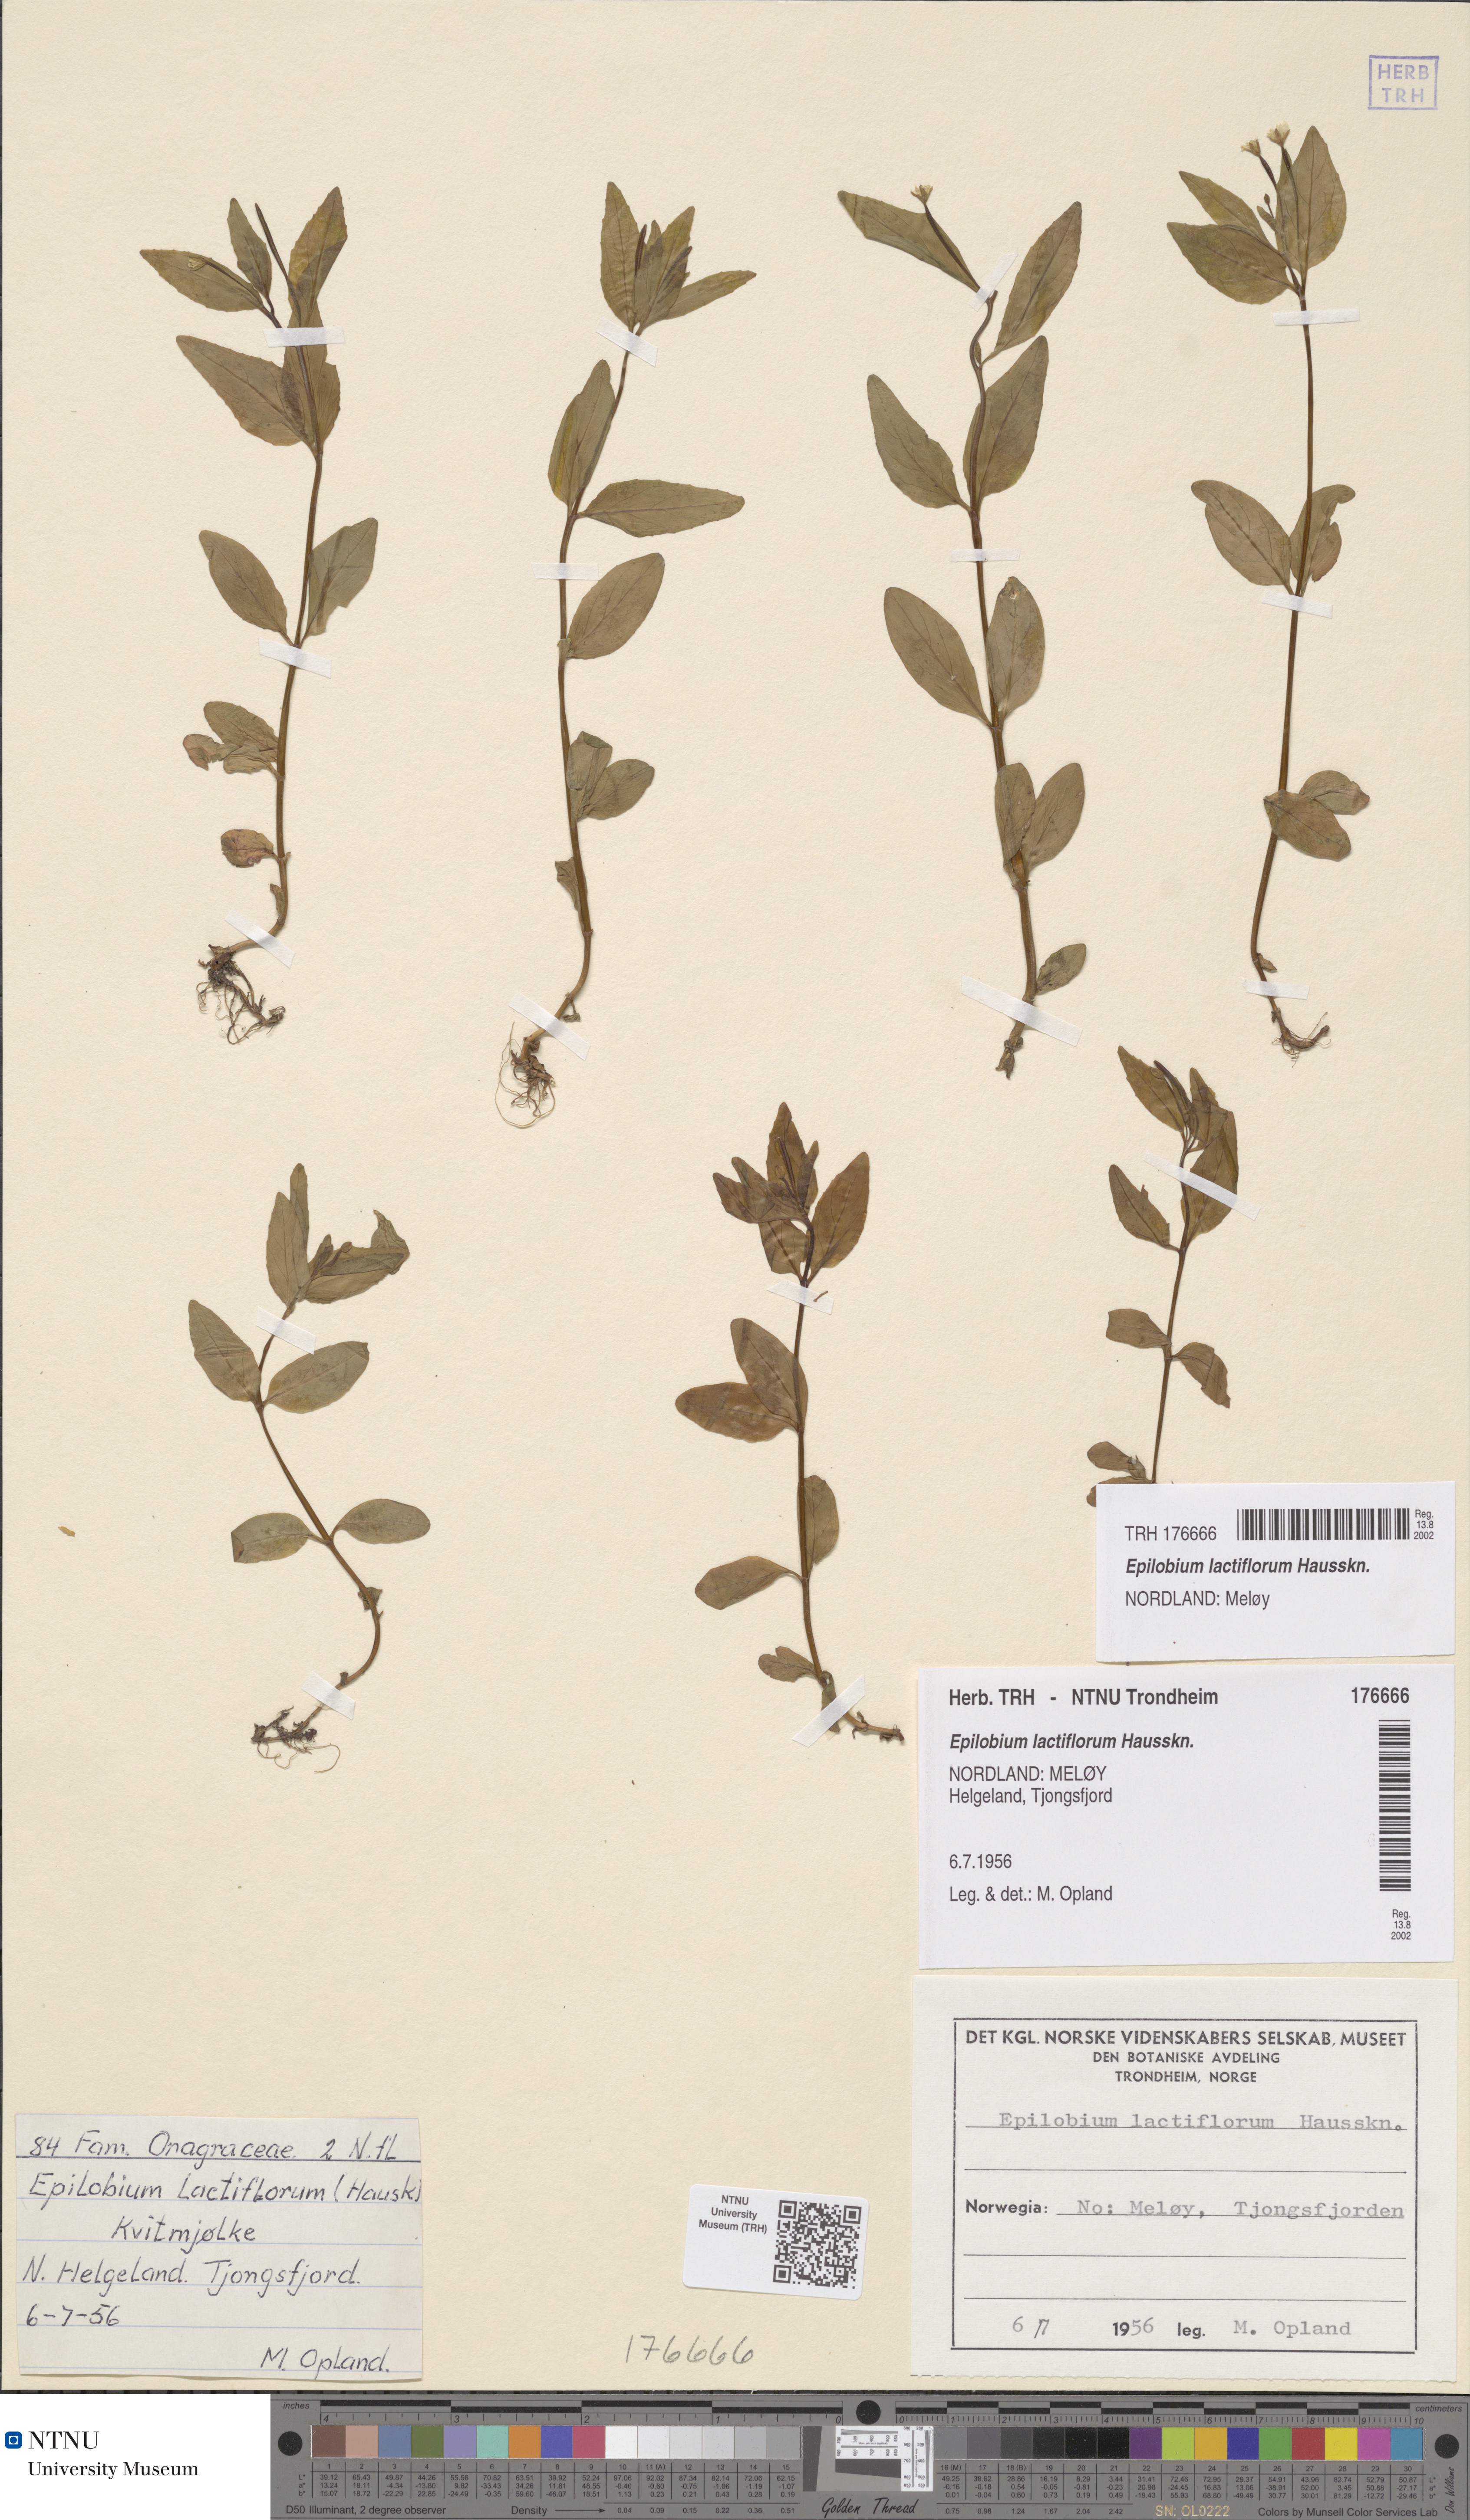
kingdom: Plantae
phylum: Tracheophyta
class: Magnoliopsida
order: Myrtales
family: Onagraceae
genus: Epilobium
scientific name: Epilobium lactiflorum
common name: Milkflower willowherb
